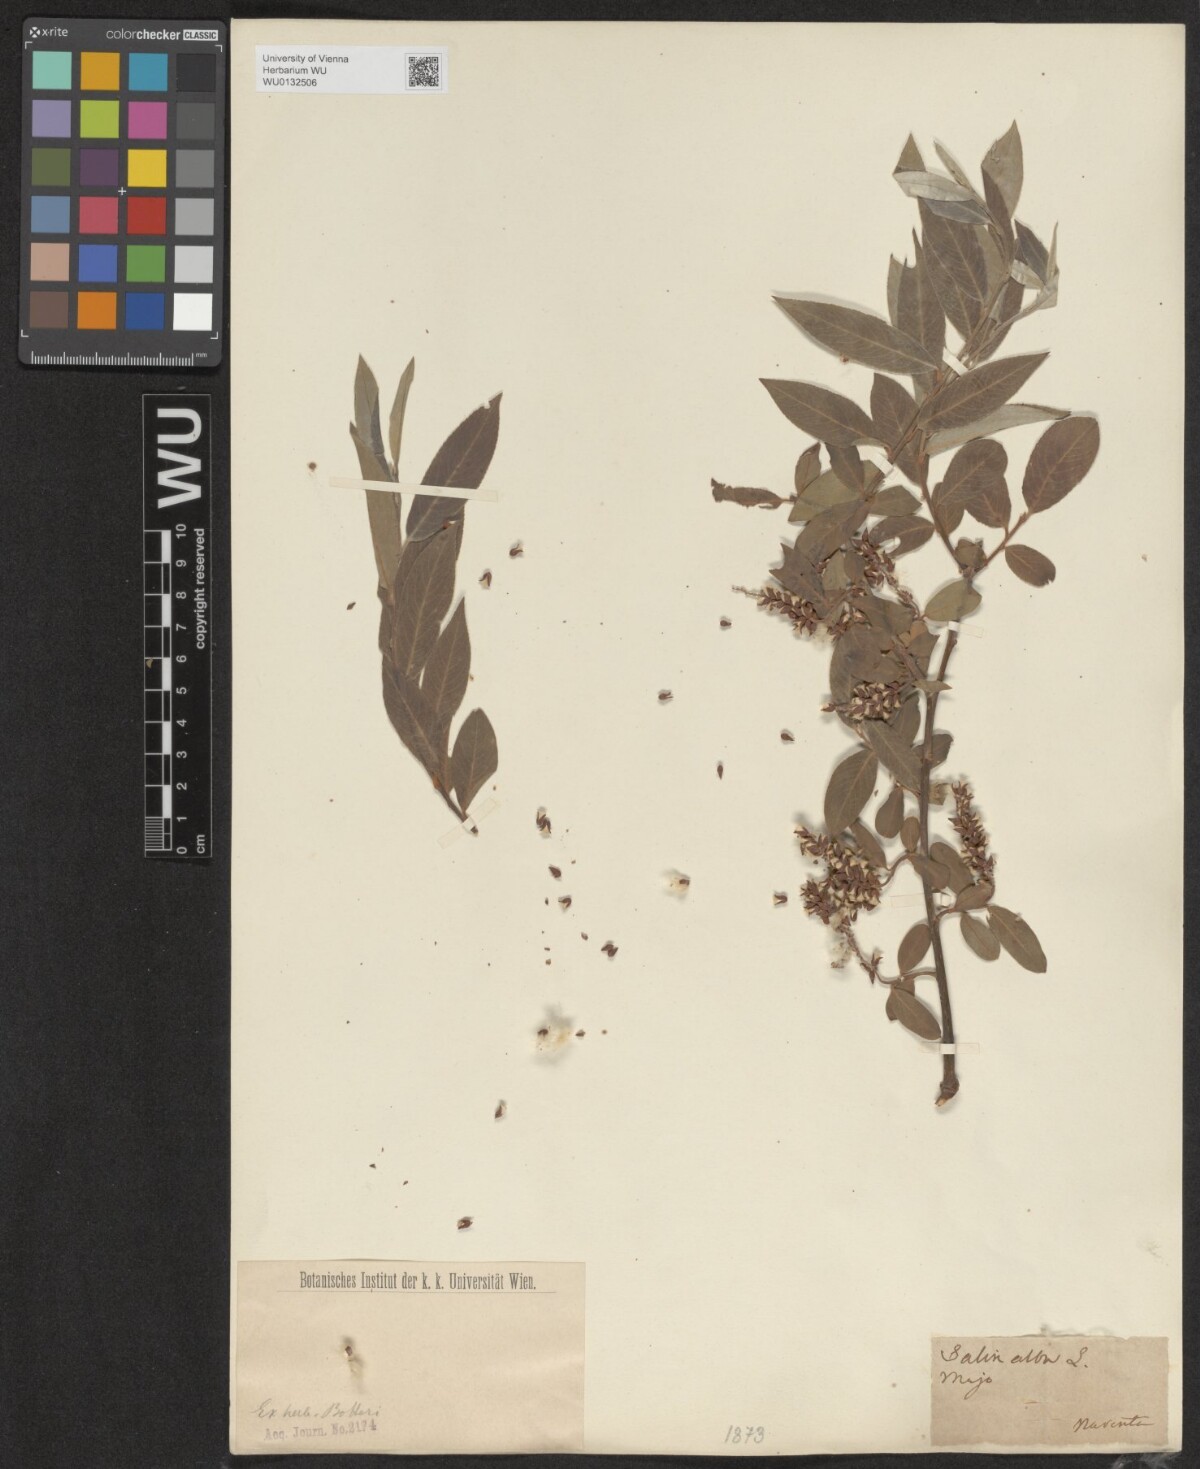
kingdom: Plantae
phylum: Tracheophyta
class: Magnoliopsida
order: Malpighiales
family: Salicaceae
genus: Salix
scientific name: Salix alba
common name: White willow
